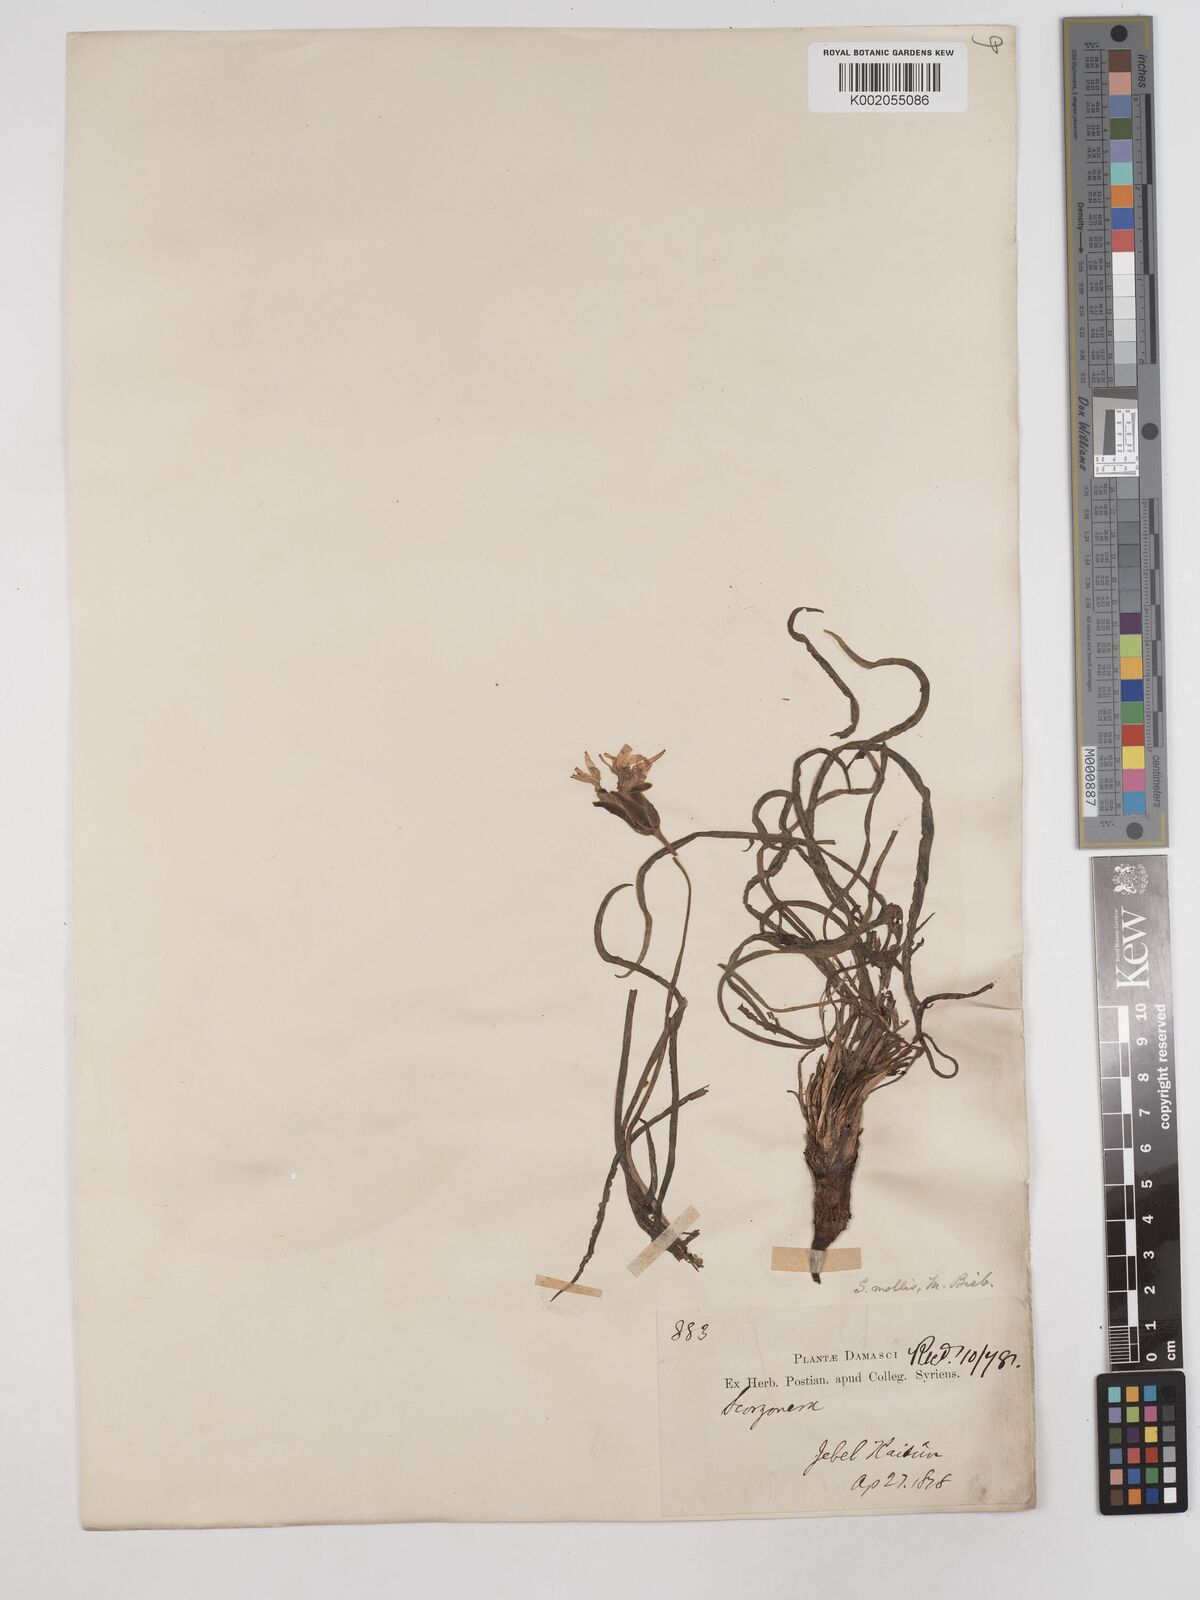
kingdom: Plantae
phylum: Tracheophyta
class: Magnoliopsida
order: Asterales
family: Asteraceae
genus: Candollea
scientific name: Candollea mollis
